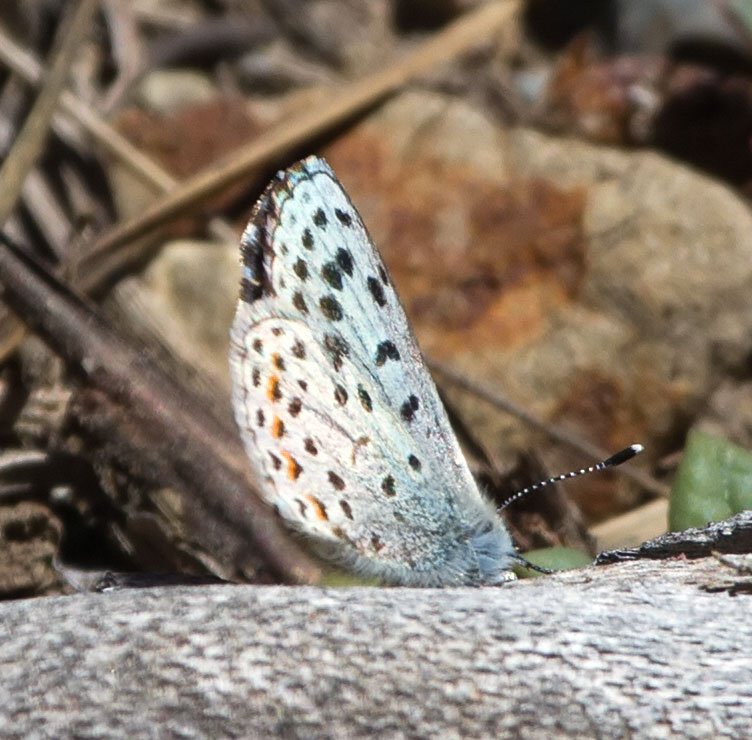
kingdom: Animalia
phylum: Arthropoda
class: Insecta
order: Lepidoptera
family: Lycaenidae
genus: Euphilotes
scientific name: Euphilotes enoptes
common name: Dotted Blue
